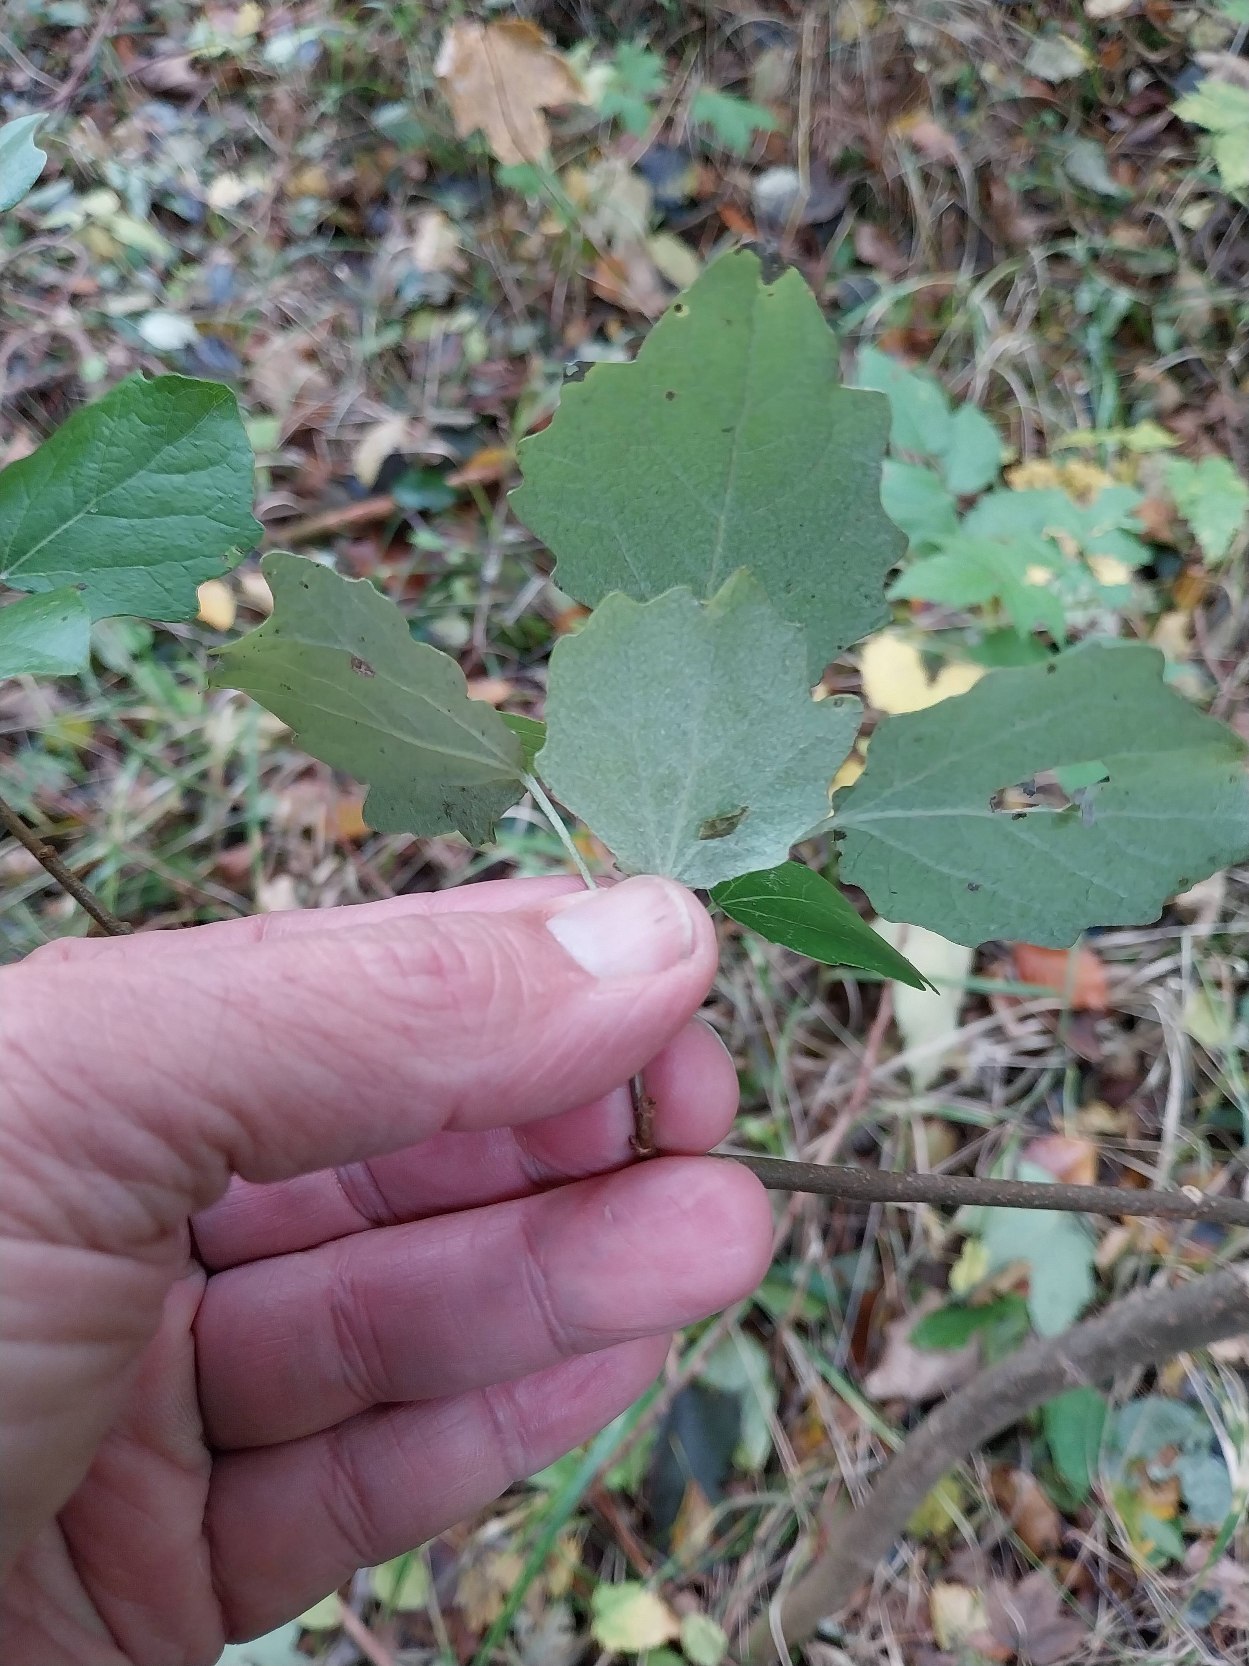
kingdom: Plantae
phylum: Tracheophyta
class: Magnoliopsida
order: Malpighiales
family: Salicaceae
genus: Populus
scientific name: Populus canescens
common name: Grå-poppel
